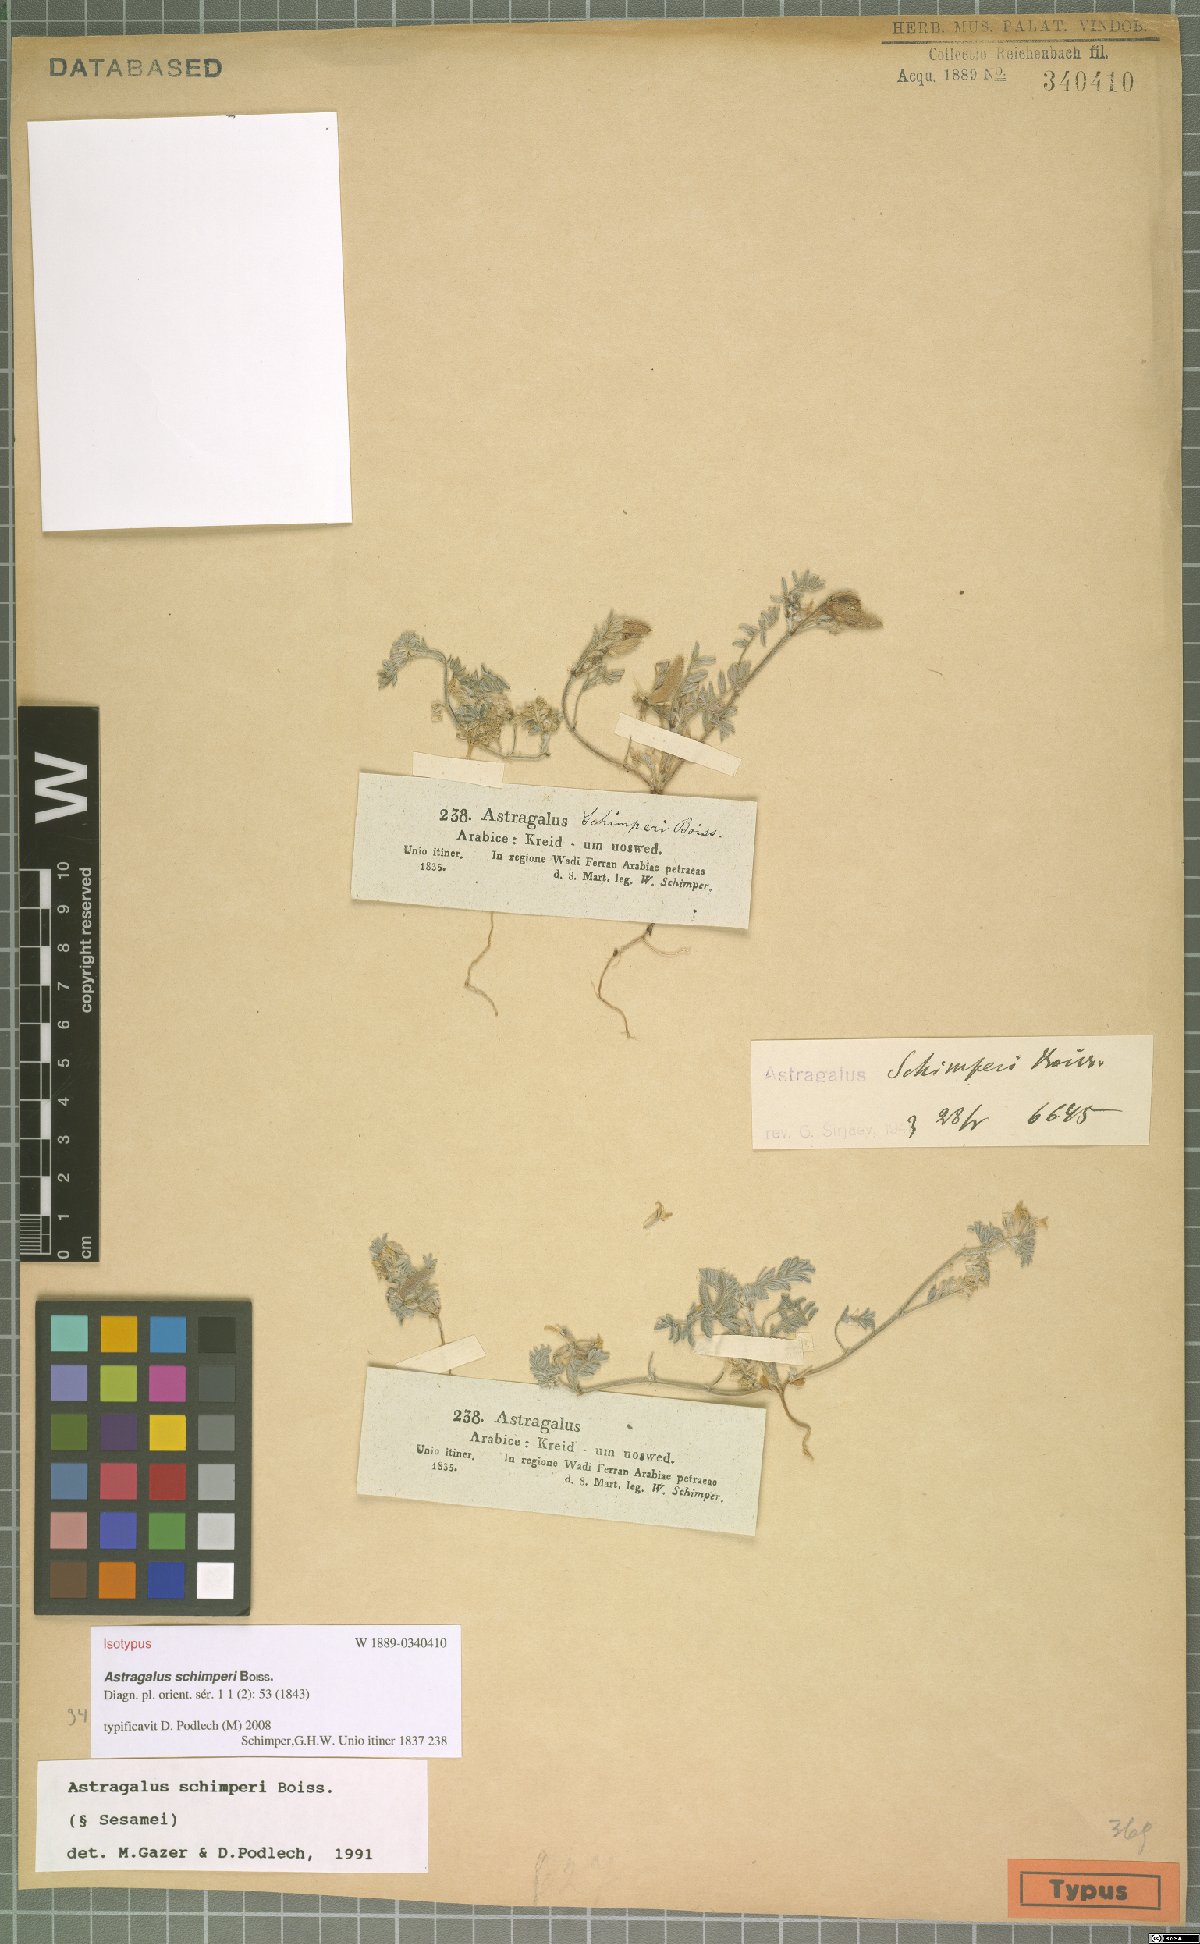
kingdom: Plantae
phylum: Tracheophyta
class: Magnoliopsida
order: Fabales
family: Fabaceae
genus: Astragalus
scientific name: Astragalus schimperi
